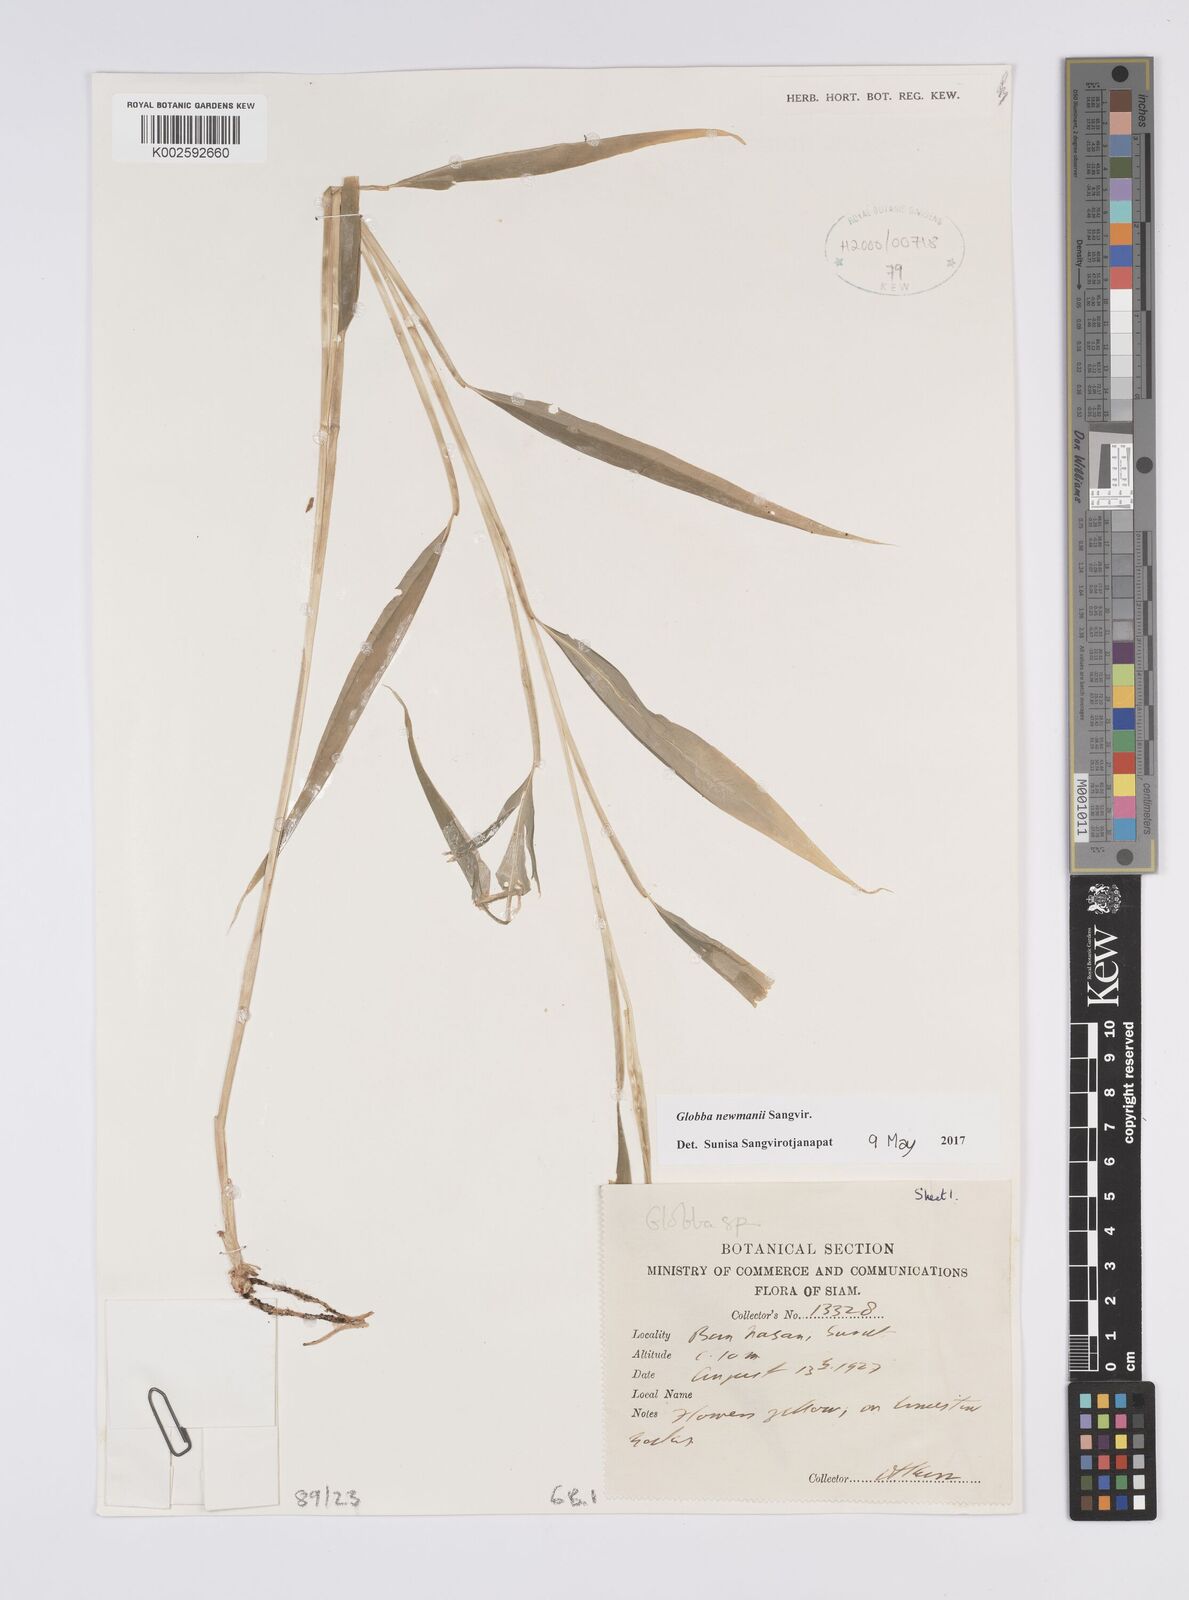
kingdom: Plantae
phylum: Tracheophyta
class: Liliopsida
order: Zingiberales
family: Zingiberaceae
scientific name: Zingiberaceae
